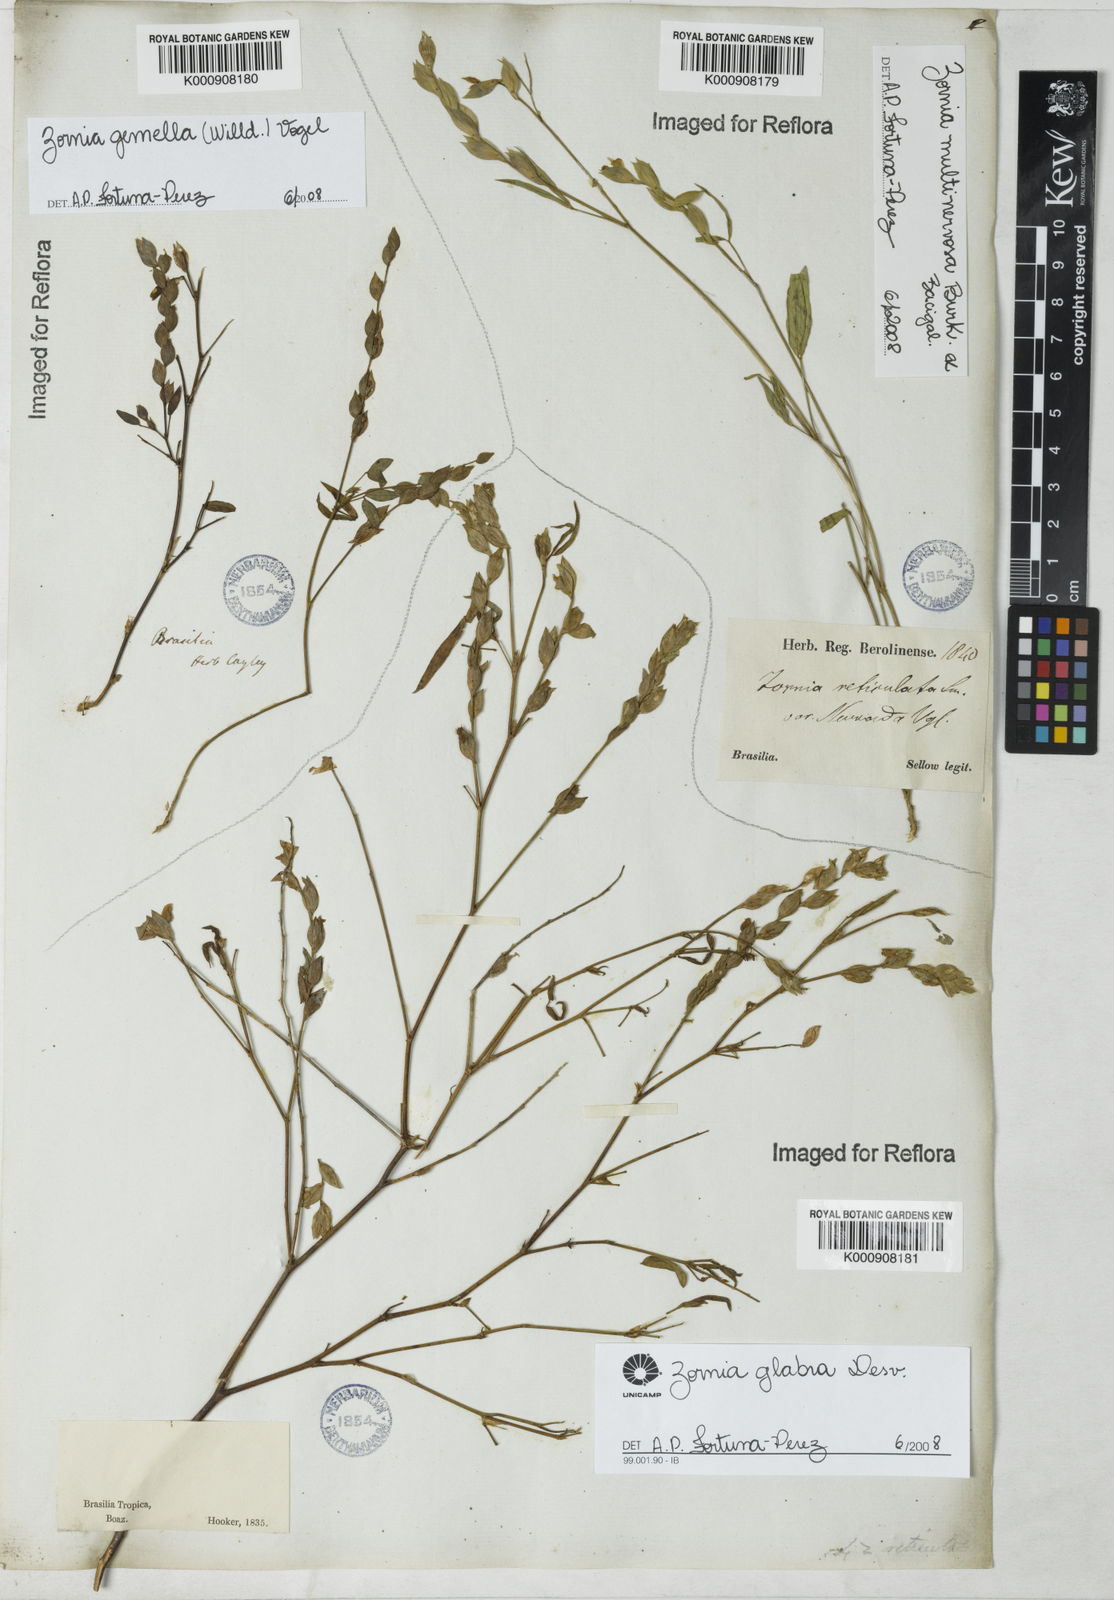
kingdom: Plantae
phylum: Tracheophyta
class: Magnoliopsida
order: Fabales
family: Fabaceae
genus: Zornia
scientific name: Zornia glabra
